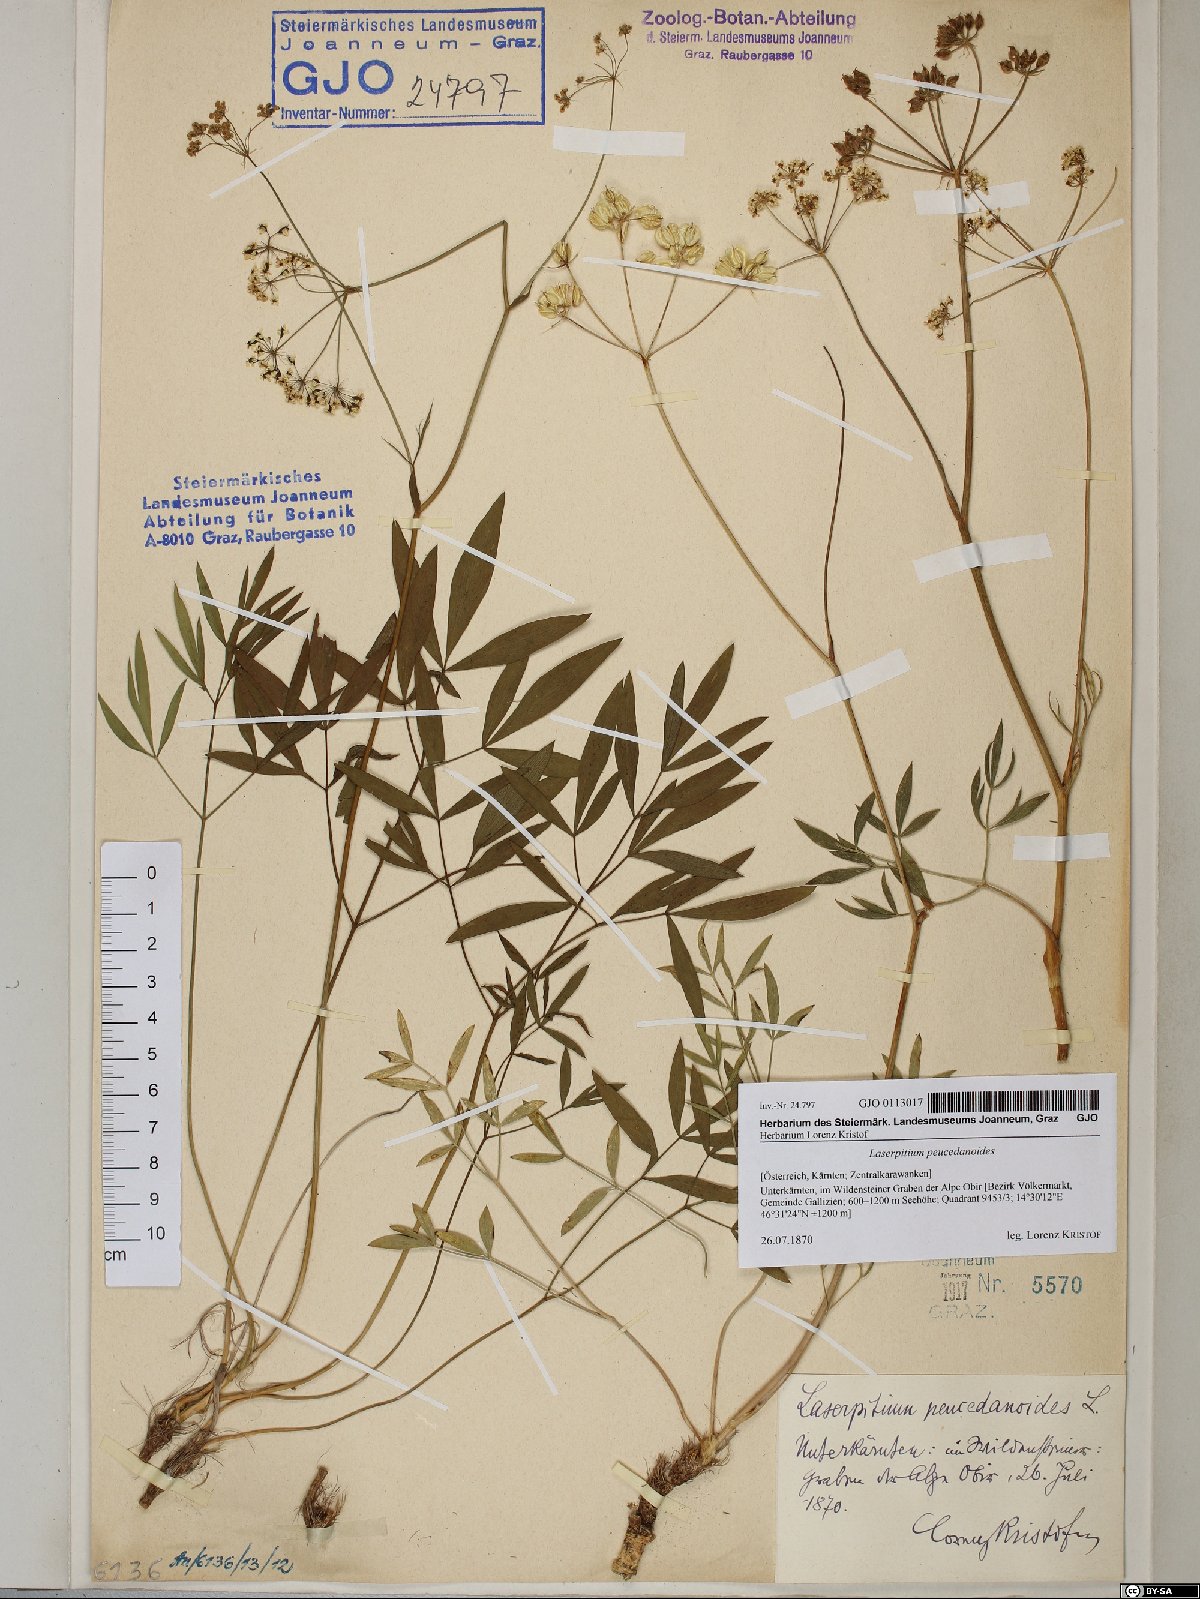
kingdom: Plantae
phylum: Tracheophyta
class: Magnoliopsida
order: Apiales
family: Apiaceae
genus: Laserpitium
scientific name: Laserpitium peucedanoides
